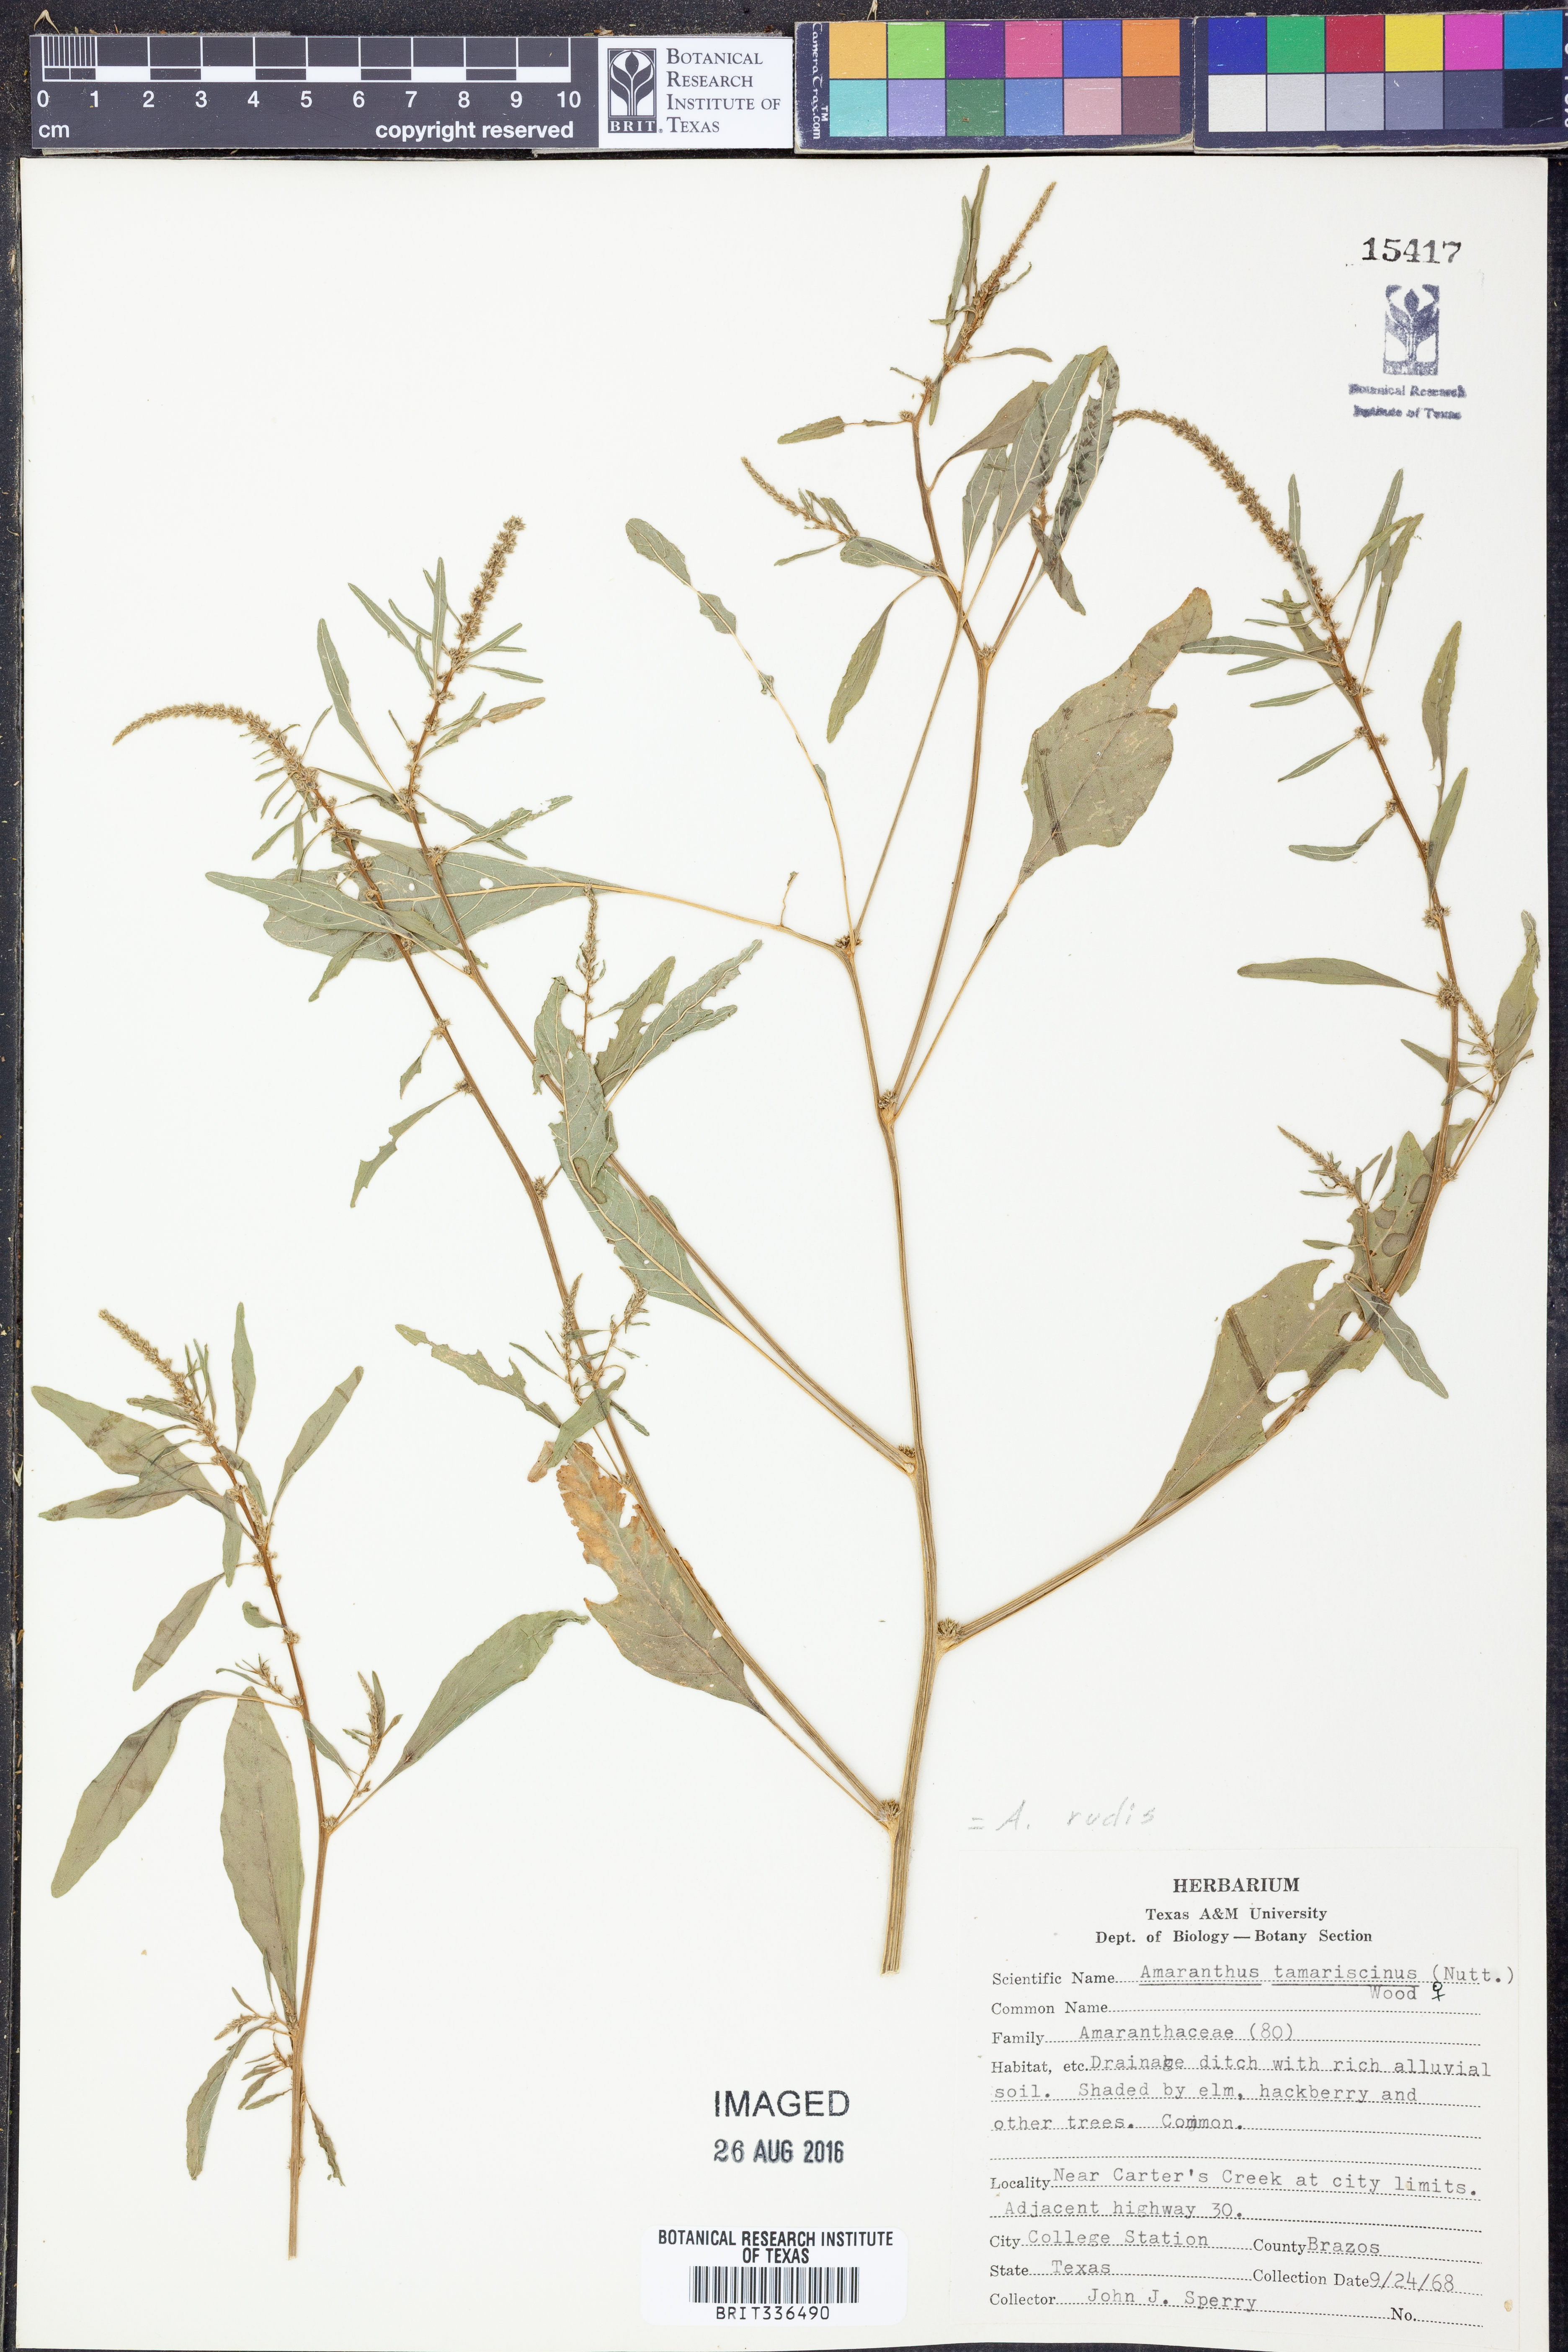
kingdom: Plantae
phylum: Tracheophyta
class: Magnoliopsida
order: Caryophyllales
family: Amaranthaceae
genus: Amaranthus
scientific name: Amaranthus tuberculatus
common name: Rough-fruit amaranth
